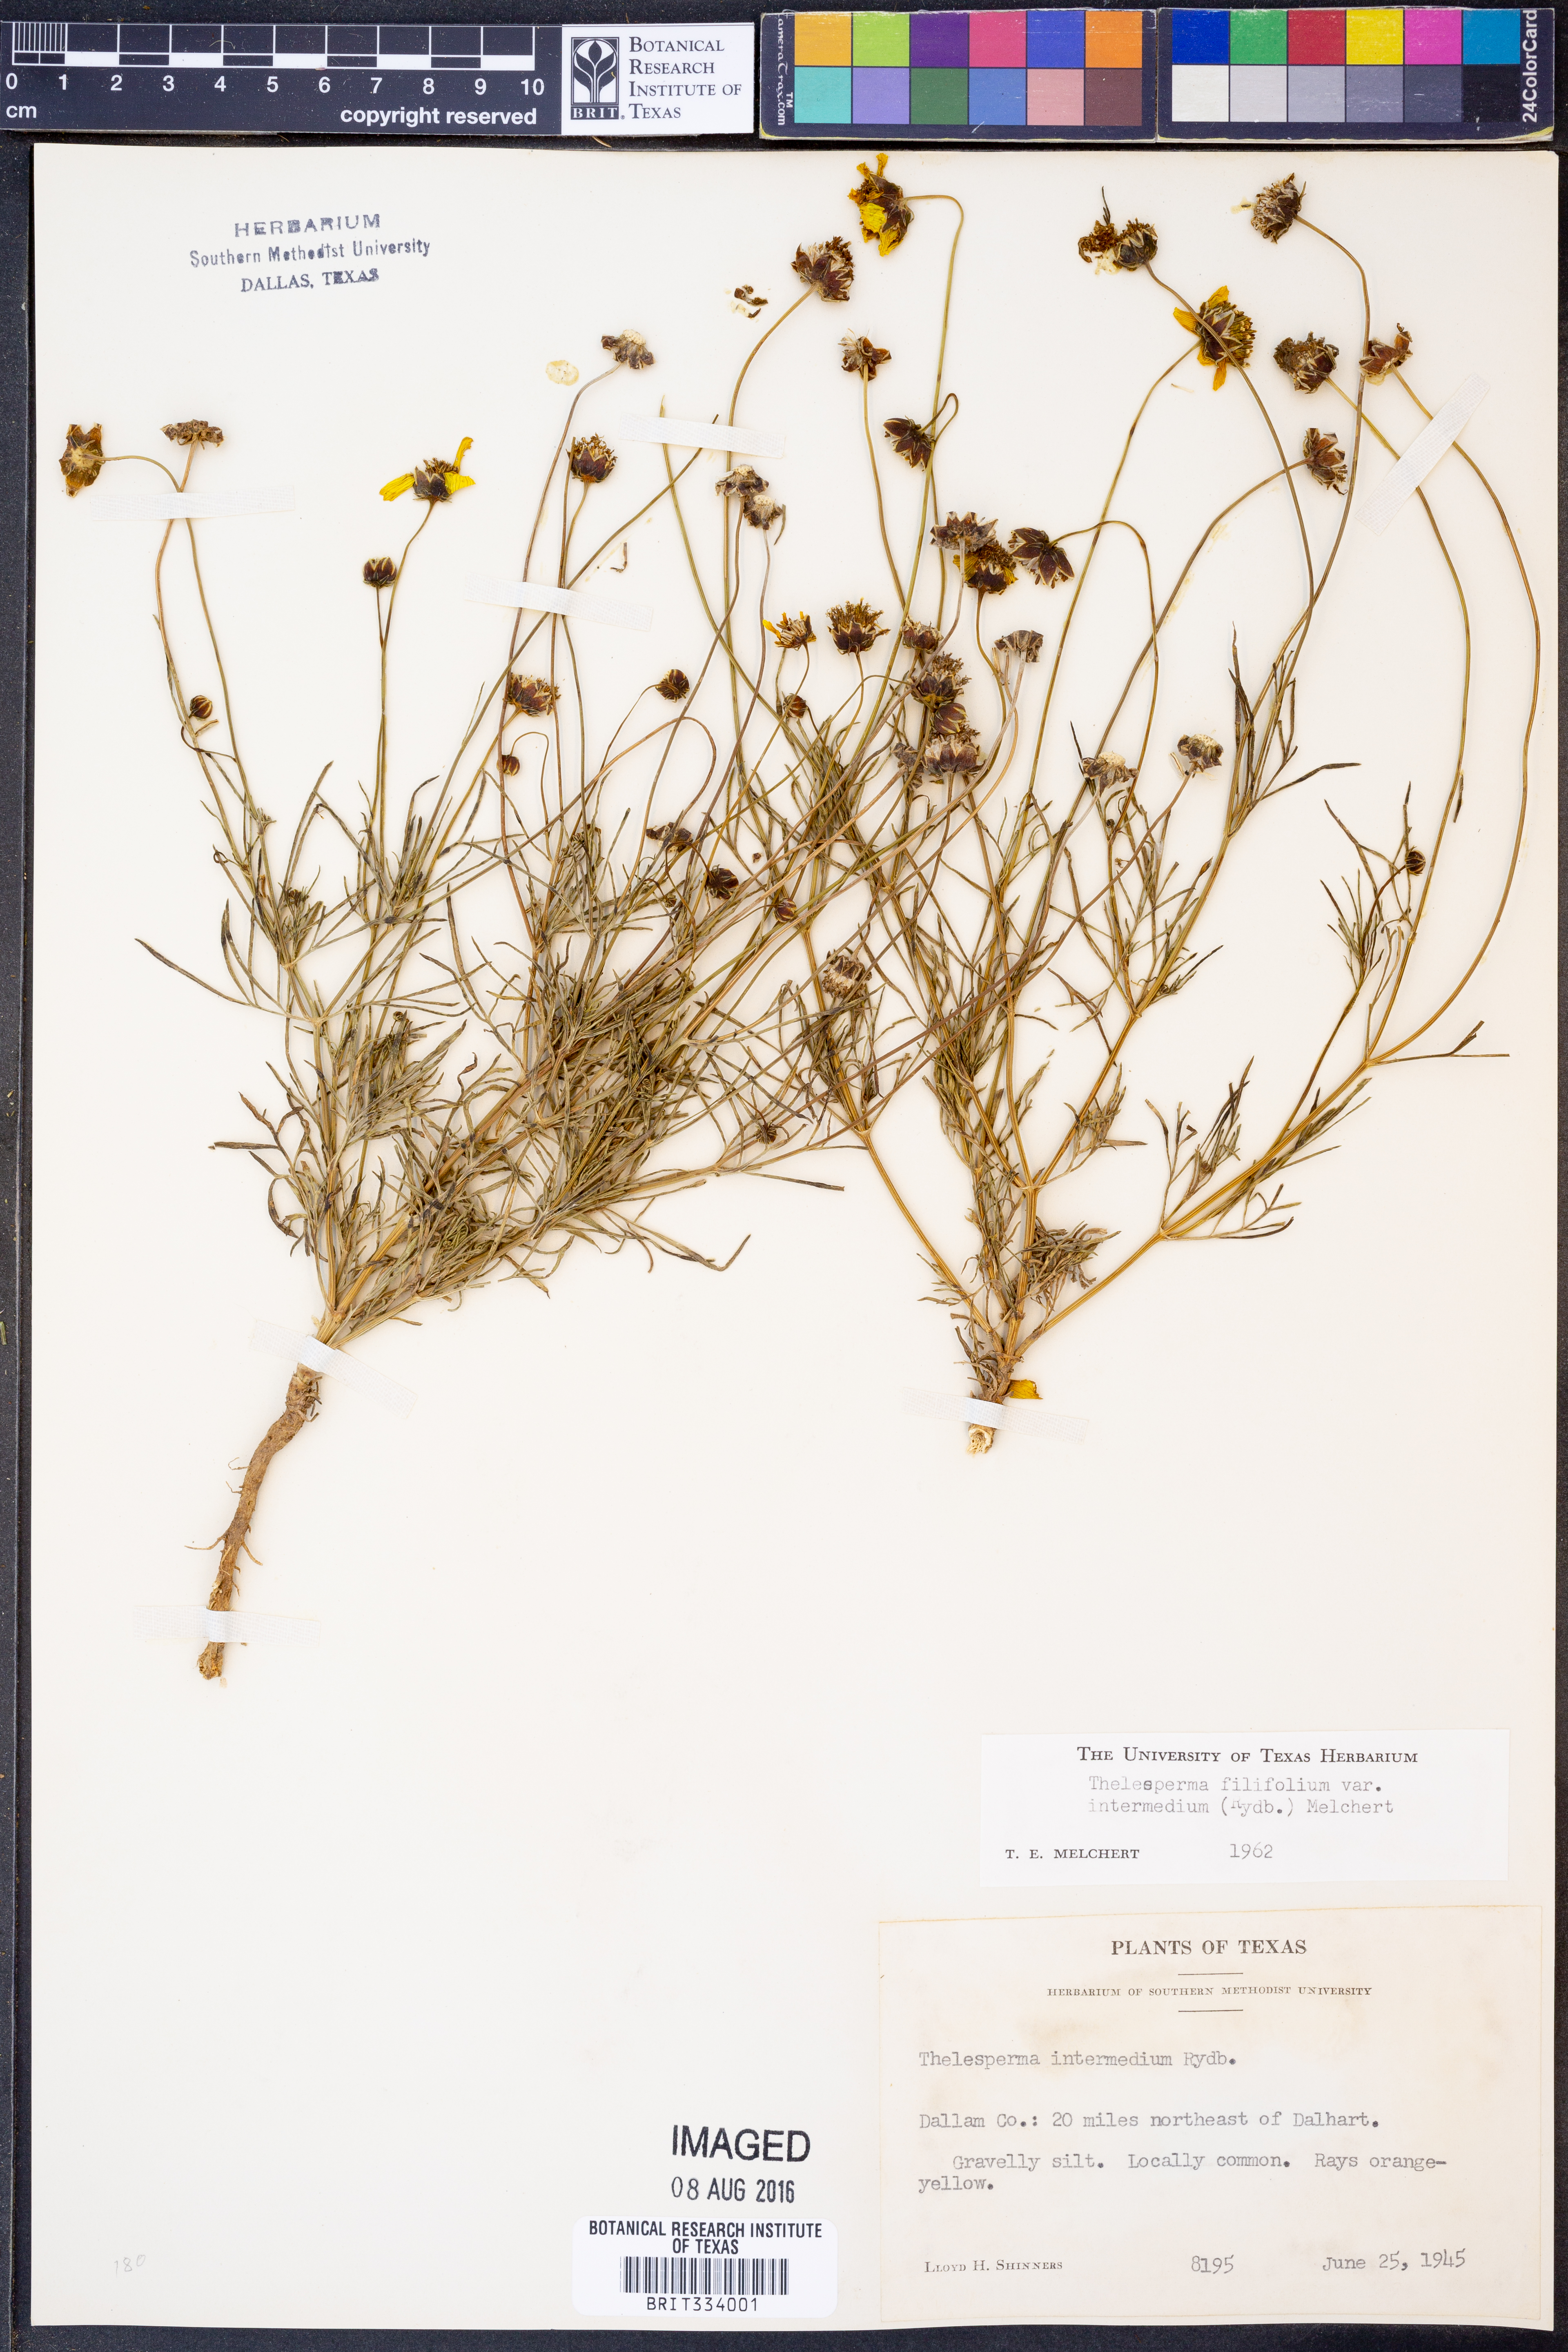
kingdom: Plantae
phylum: Tracheophyta
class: Magnoliopsida
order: Asterales
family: Asteraceae
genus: Thelesperma
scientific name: Thelesperma filifolium
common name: Stiff greenthread
